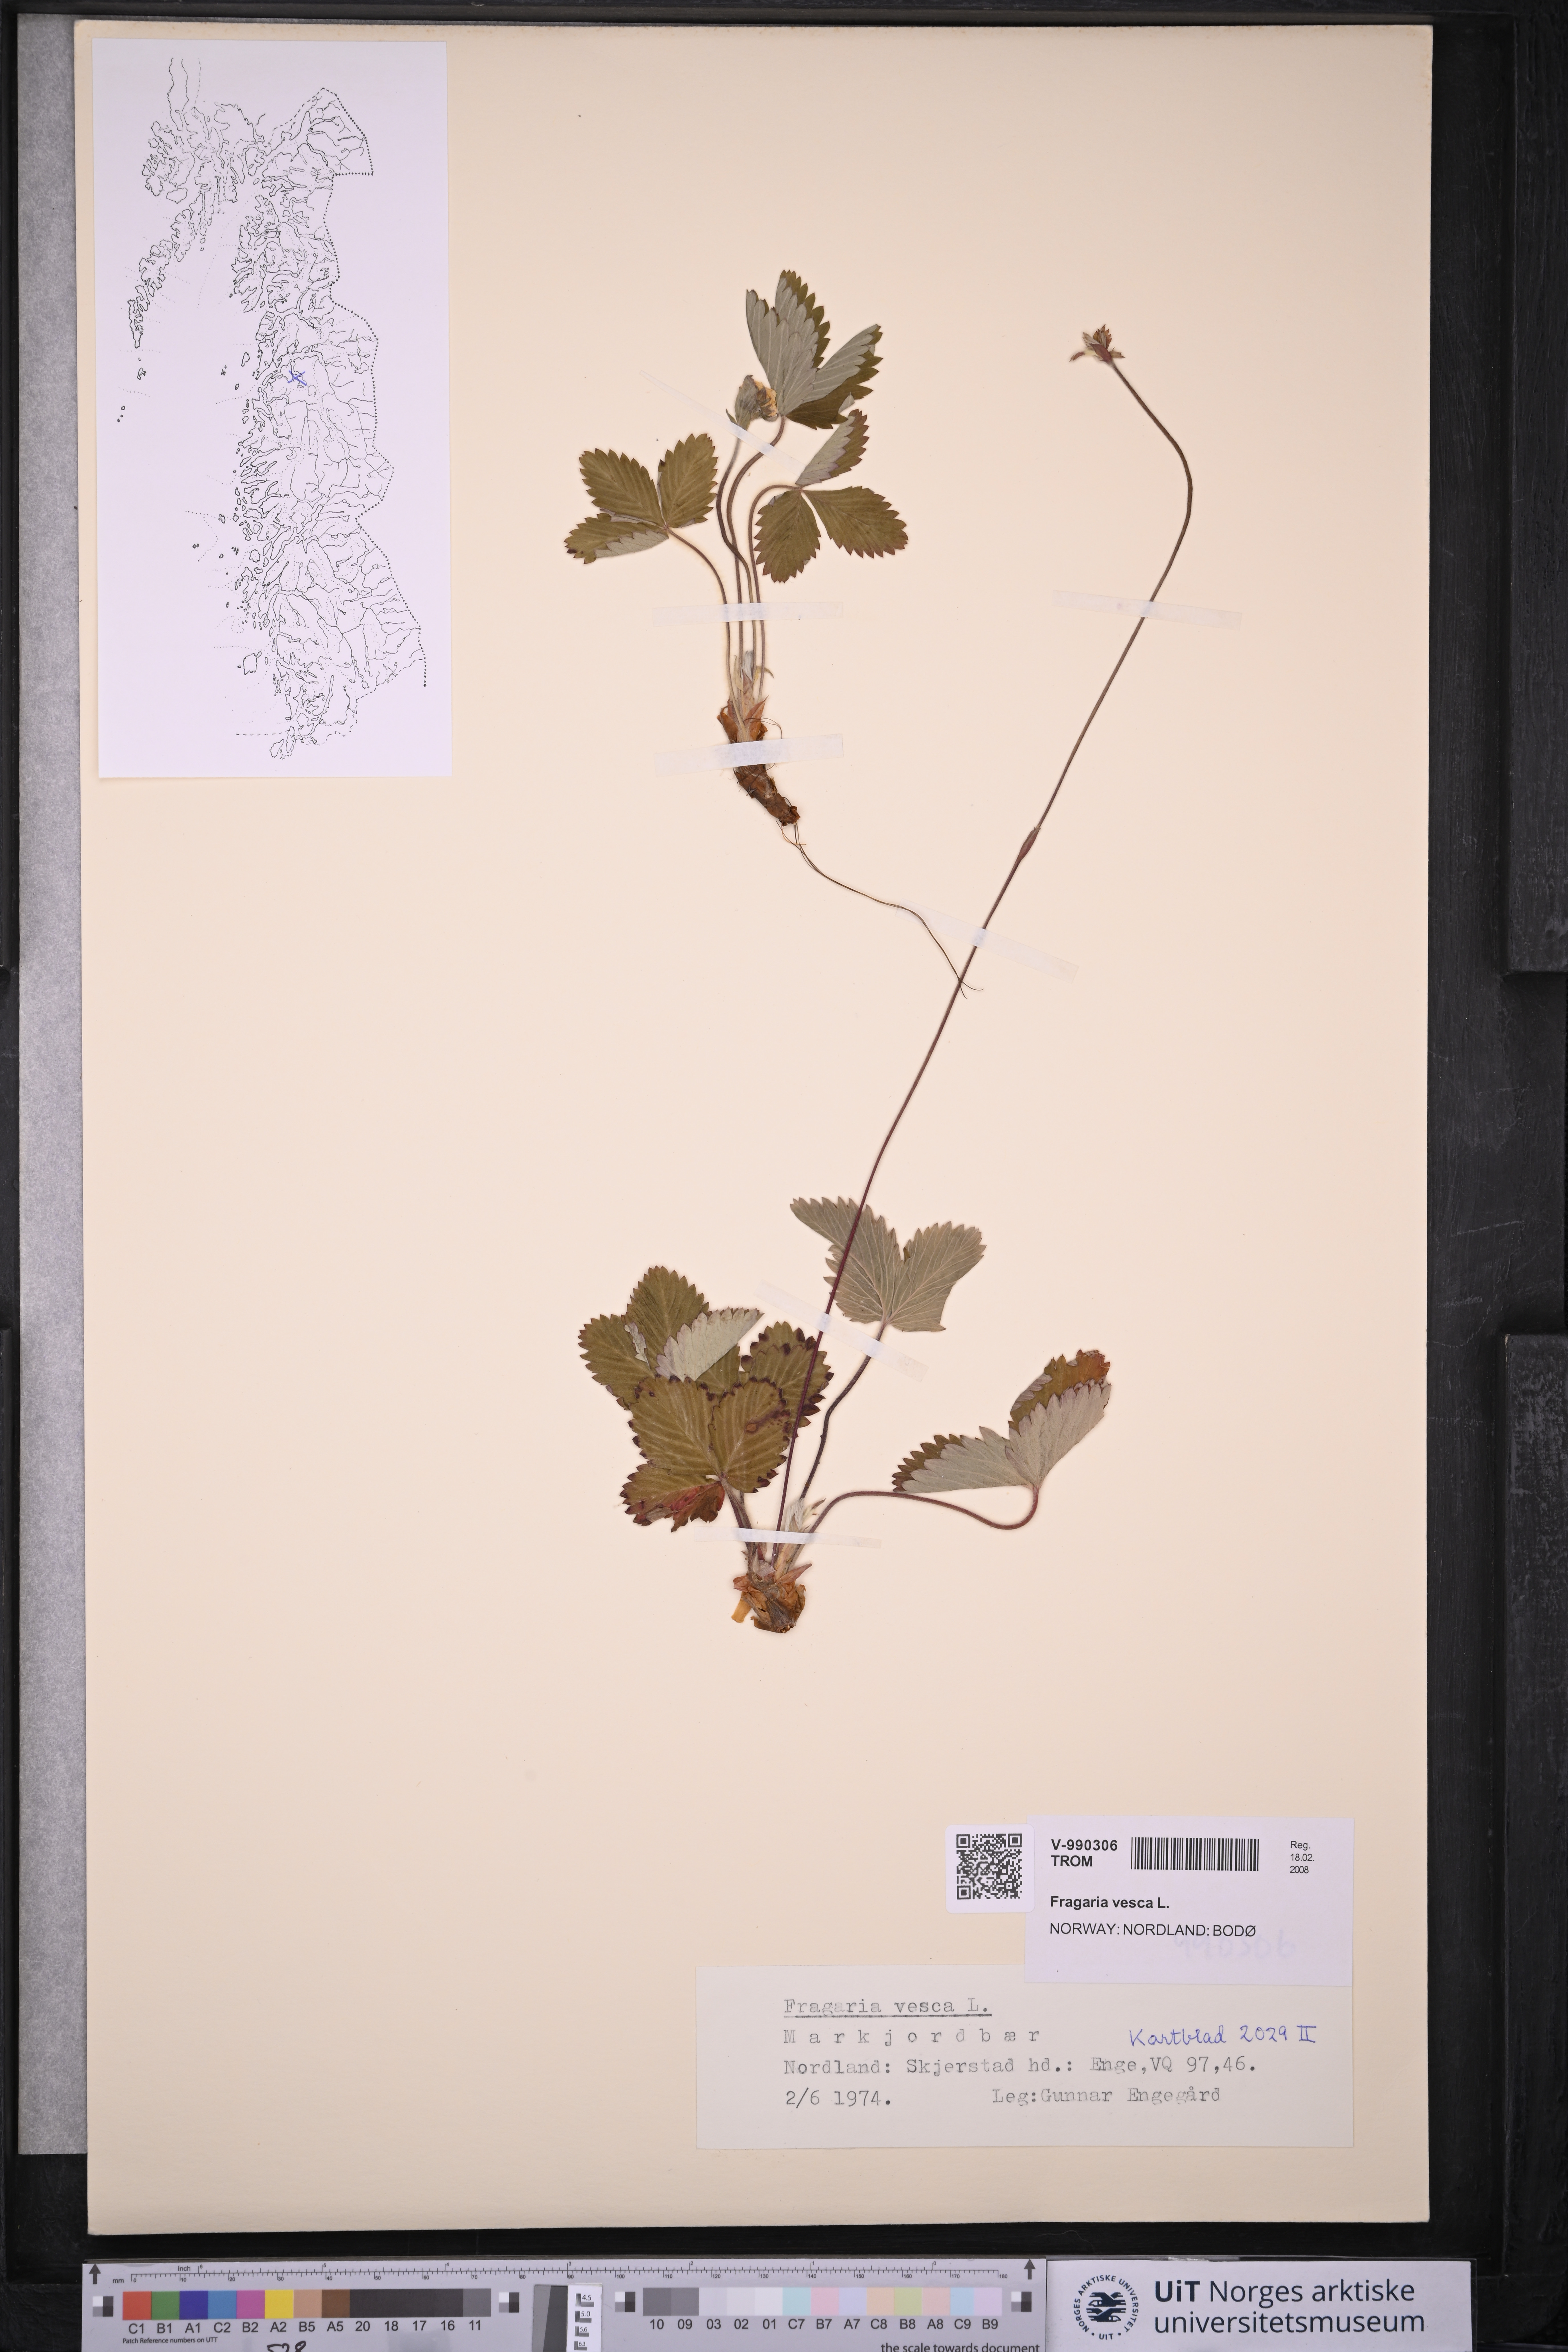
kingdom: Plantae
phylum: Tracheophyta
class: Magnoliopsida
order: Rosales
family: Rosaceae
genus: Fragaria
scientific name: Fragaria vesca
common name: Wild strawberry
